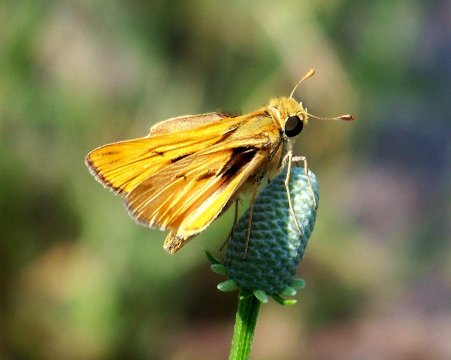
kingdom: Animalia
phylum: Arthropoda
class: Insecta
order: Lepidoptera
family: Hesperiidae
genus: Hylephila
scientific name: Hylephila phyleus
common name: Fiery Skipper
